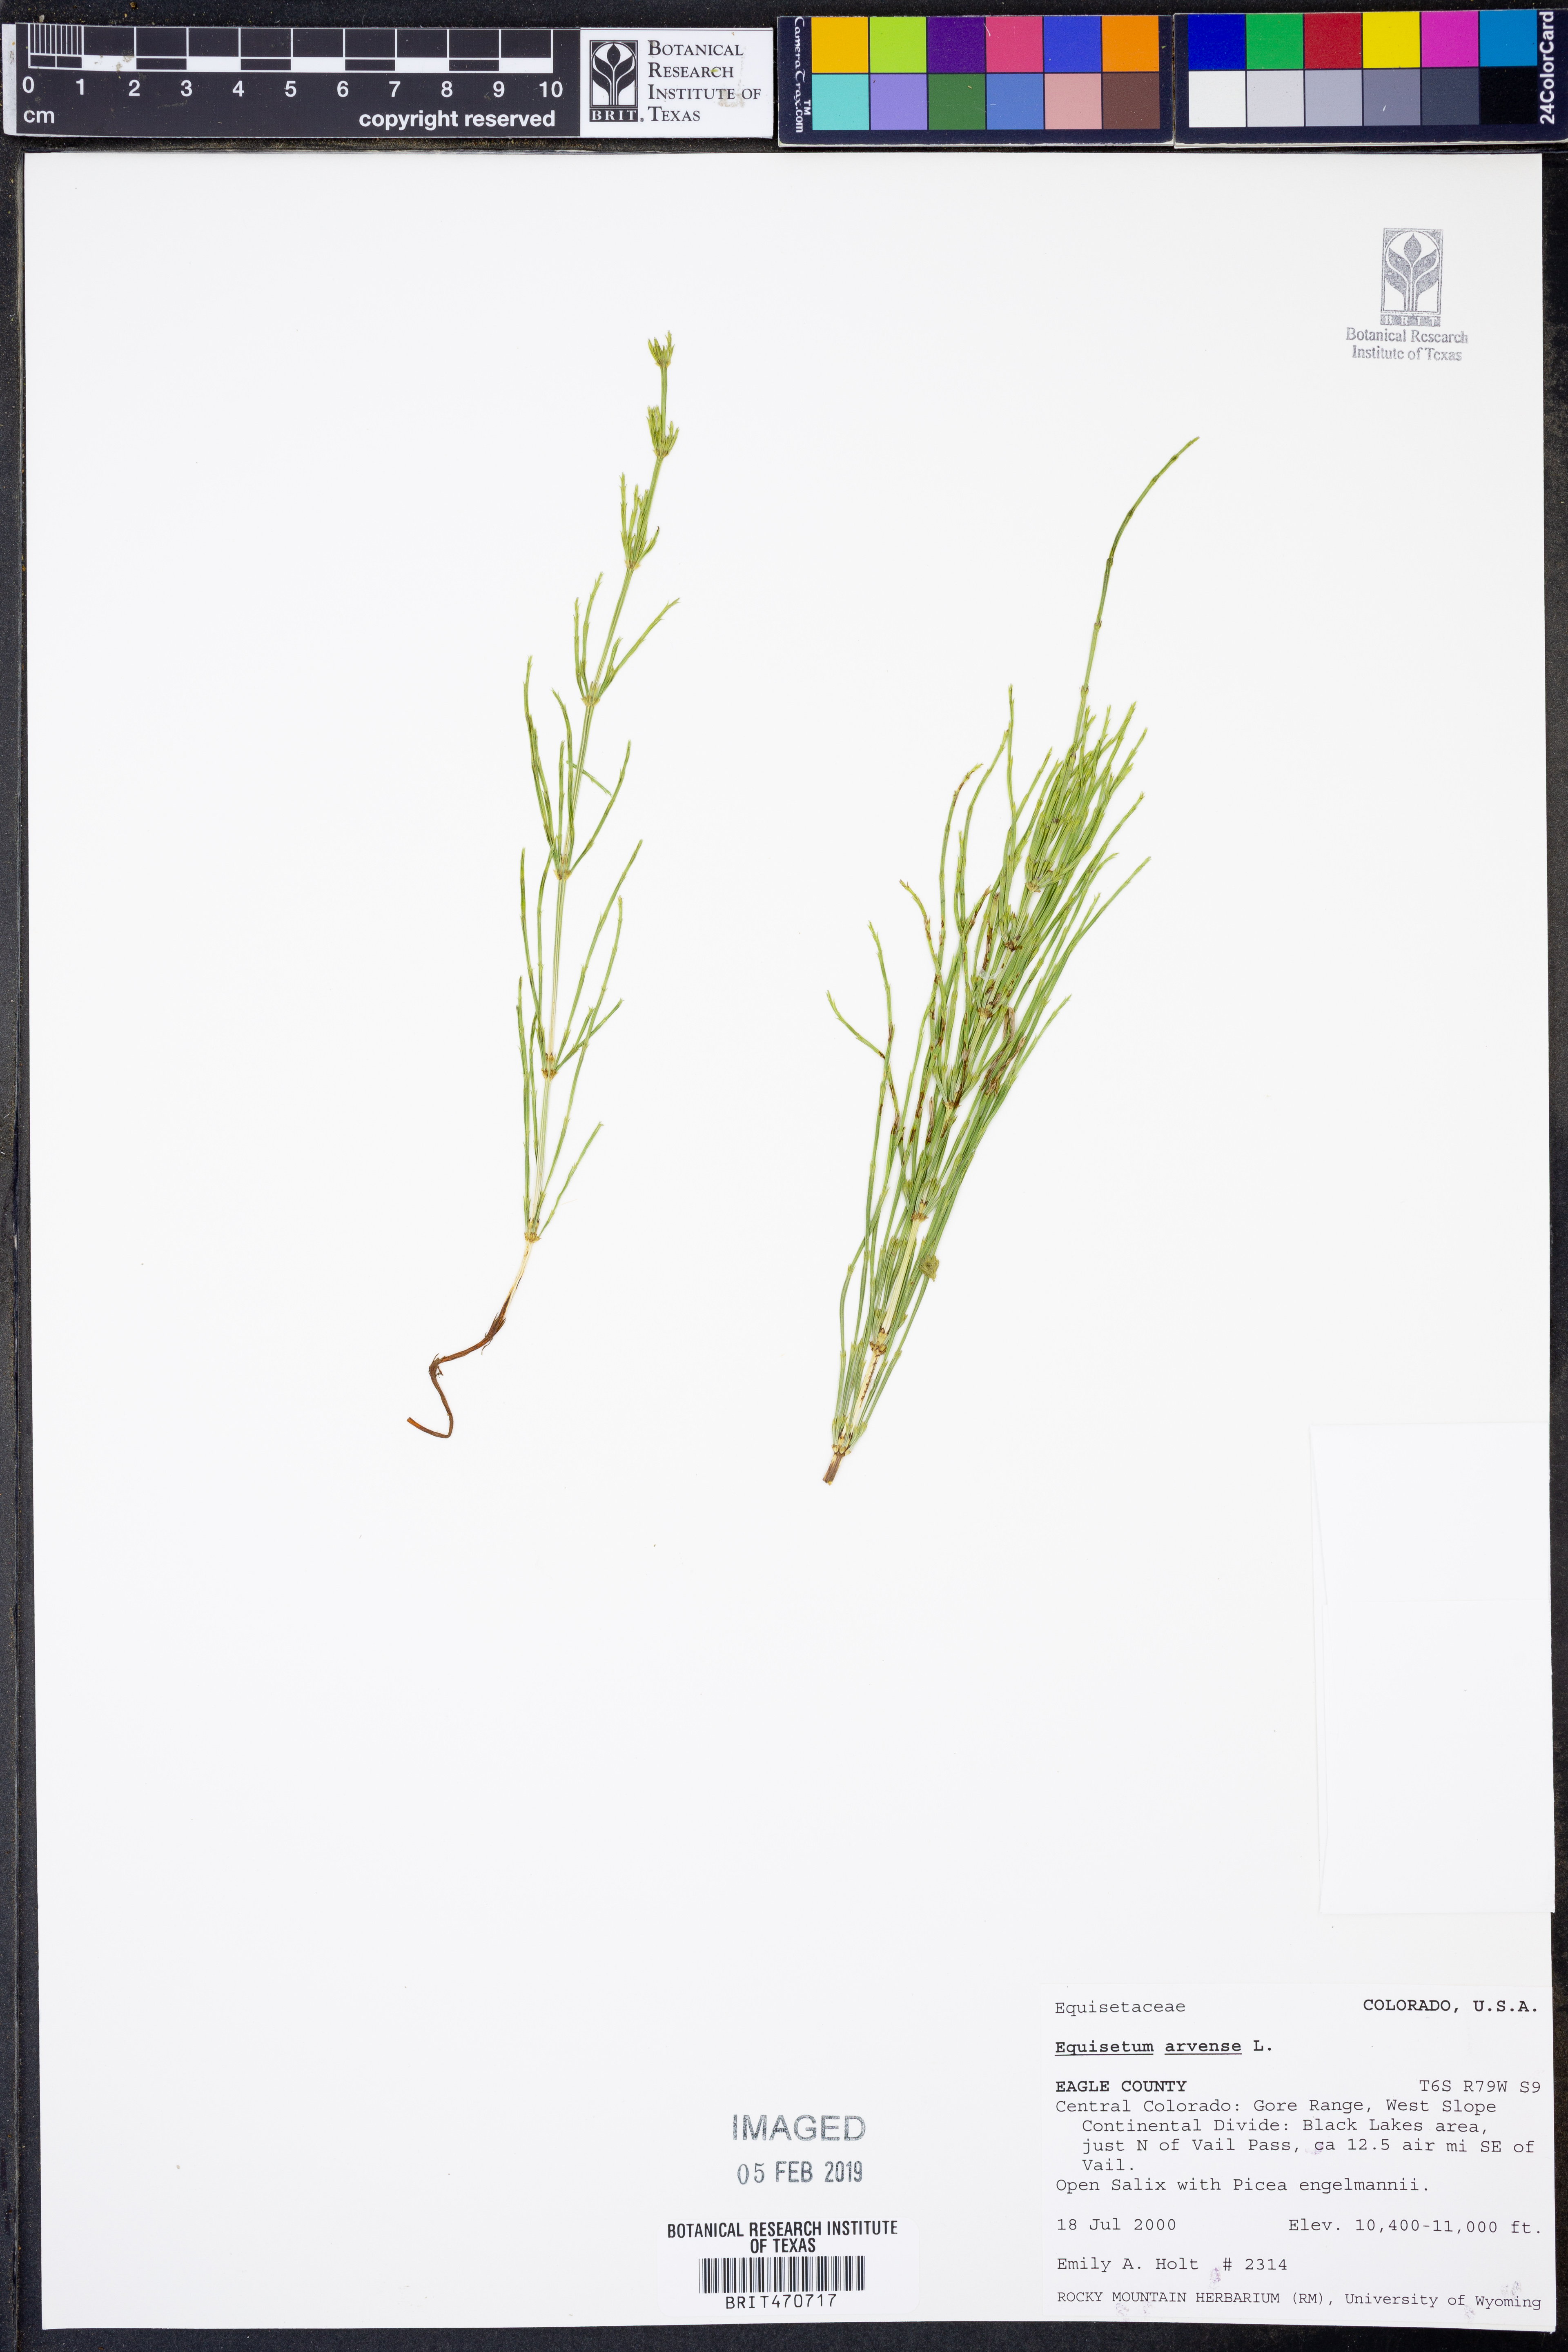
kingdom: Plantae
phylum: Tracheophyta
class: Polypodiopsida
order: Equisetales
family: Equisetaceae
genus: Equisetum
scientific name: Equisetum arvense
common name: Field horsetail
